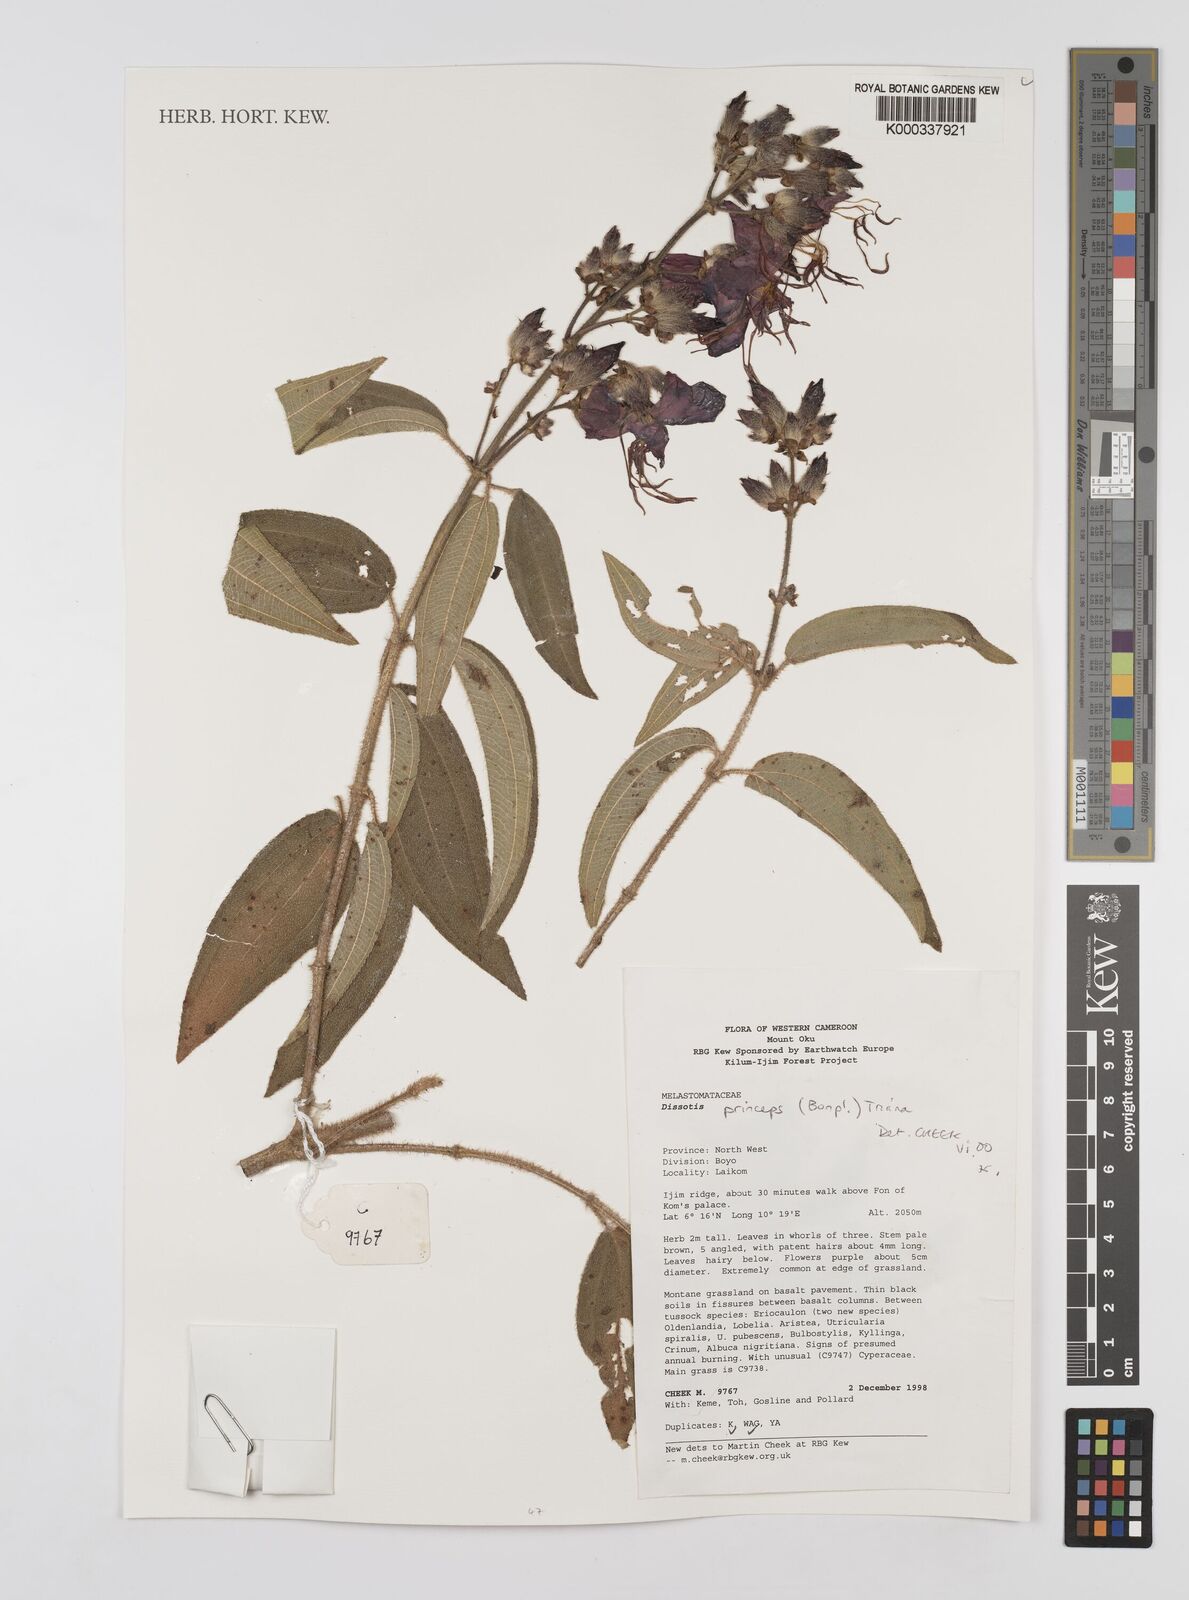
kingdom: Plantae
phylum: Tracheophyta
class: Magnoliopsida
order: Myrtales
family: Melastomataceae
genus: Rosettea
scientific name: Rosettea princeps
